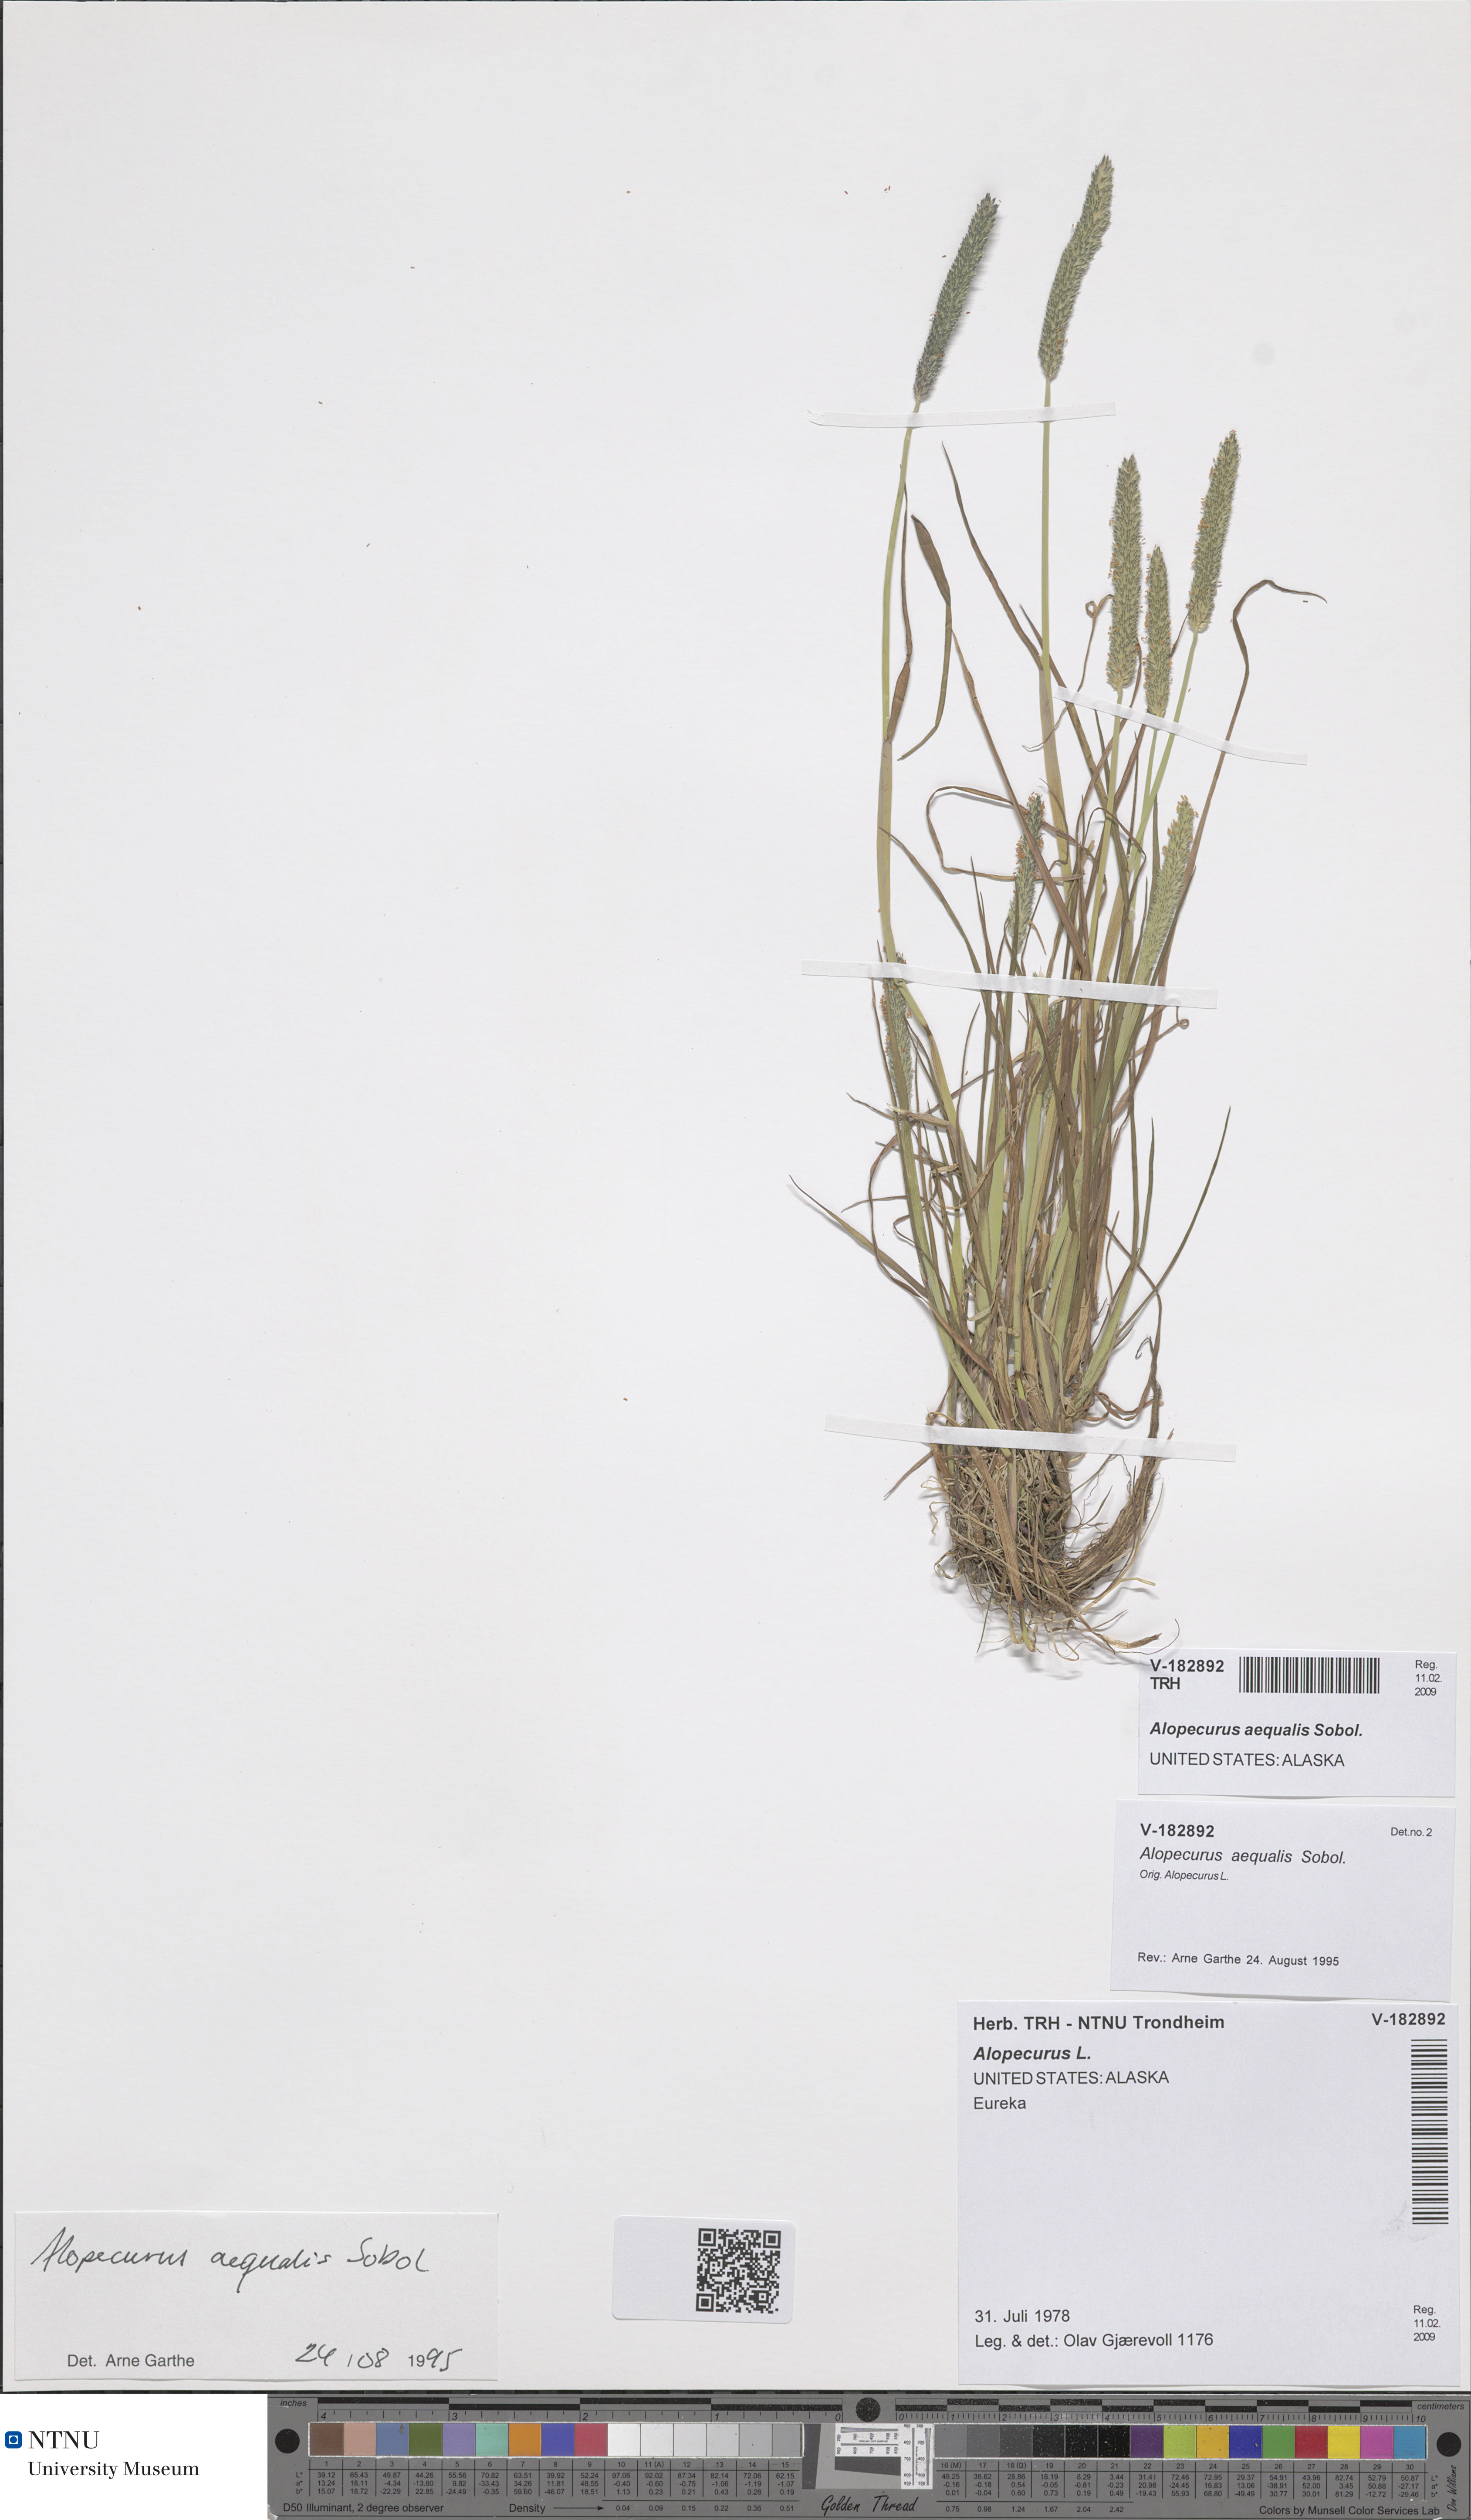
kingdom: Plantae
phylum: Tracheophyta
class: Liliopsida
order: Poales
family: Poaceae
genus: Alopecurus
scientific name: Alopecurus aequalis
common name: Orange foxtail
